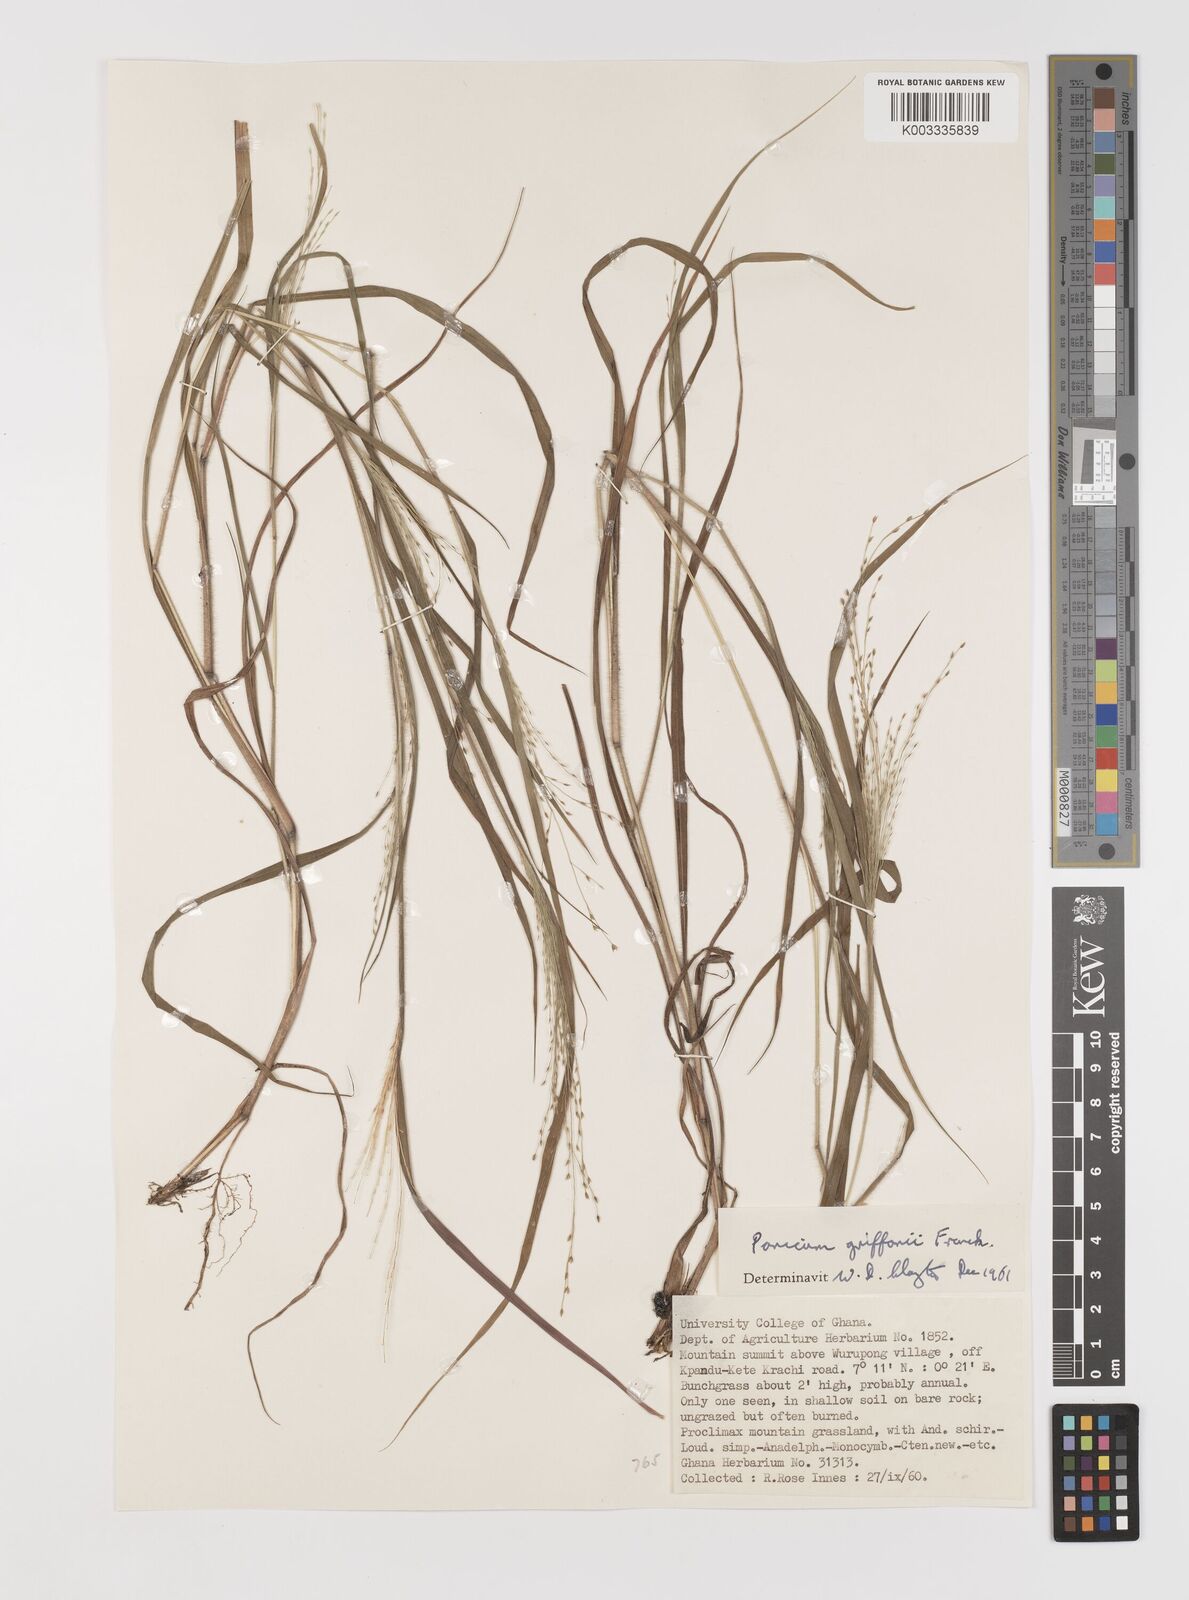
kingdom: Plantae
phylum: Tracheophyta
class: Liliopsida
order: Poales
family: Poaceae
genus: Panicum
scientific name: Panicum griffonii
